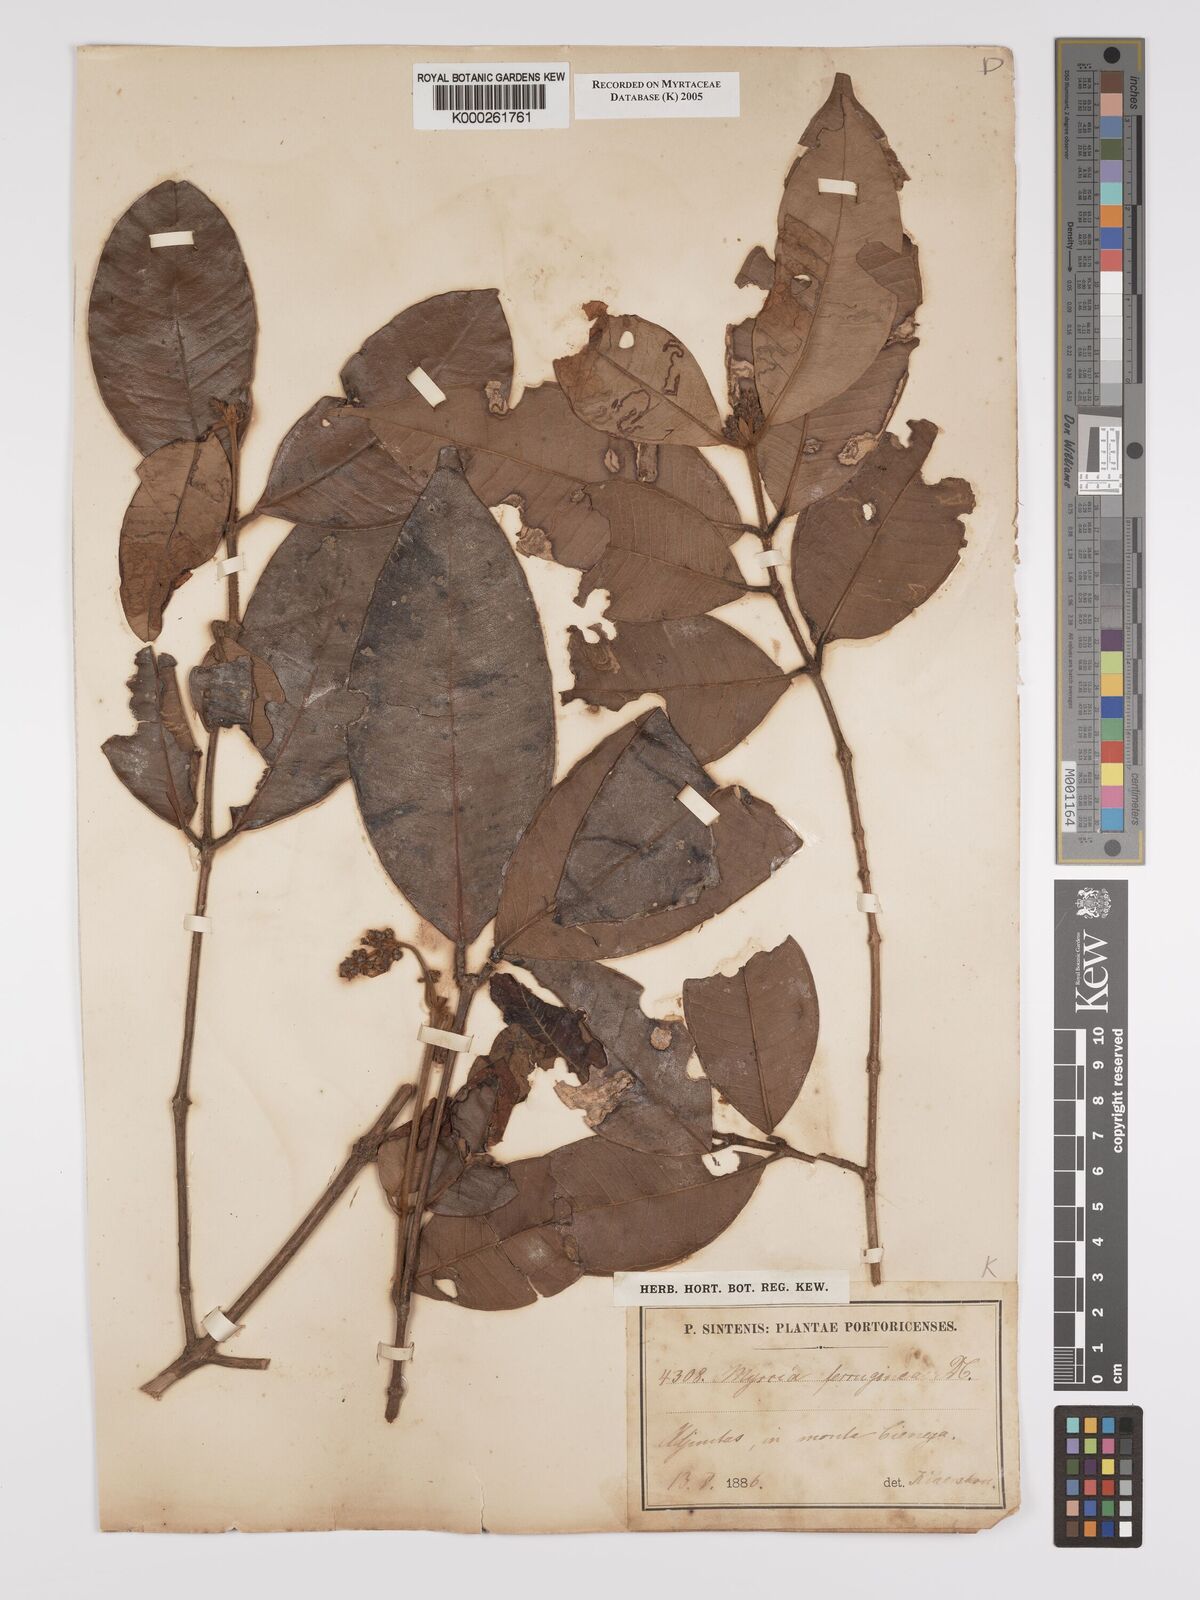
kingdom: Plantae
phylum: Tracheophyta
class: Magnoliopsida
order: Myrtales
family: Myrtaceae
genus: Myrcia
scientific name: Myrcia ferruginea
